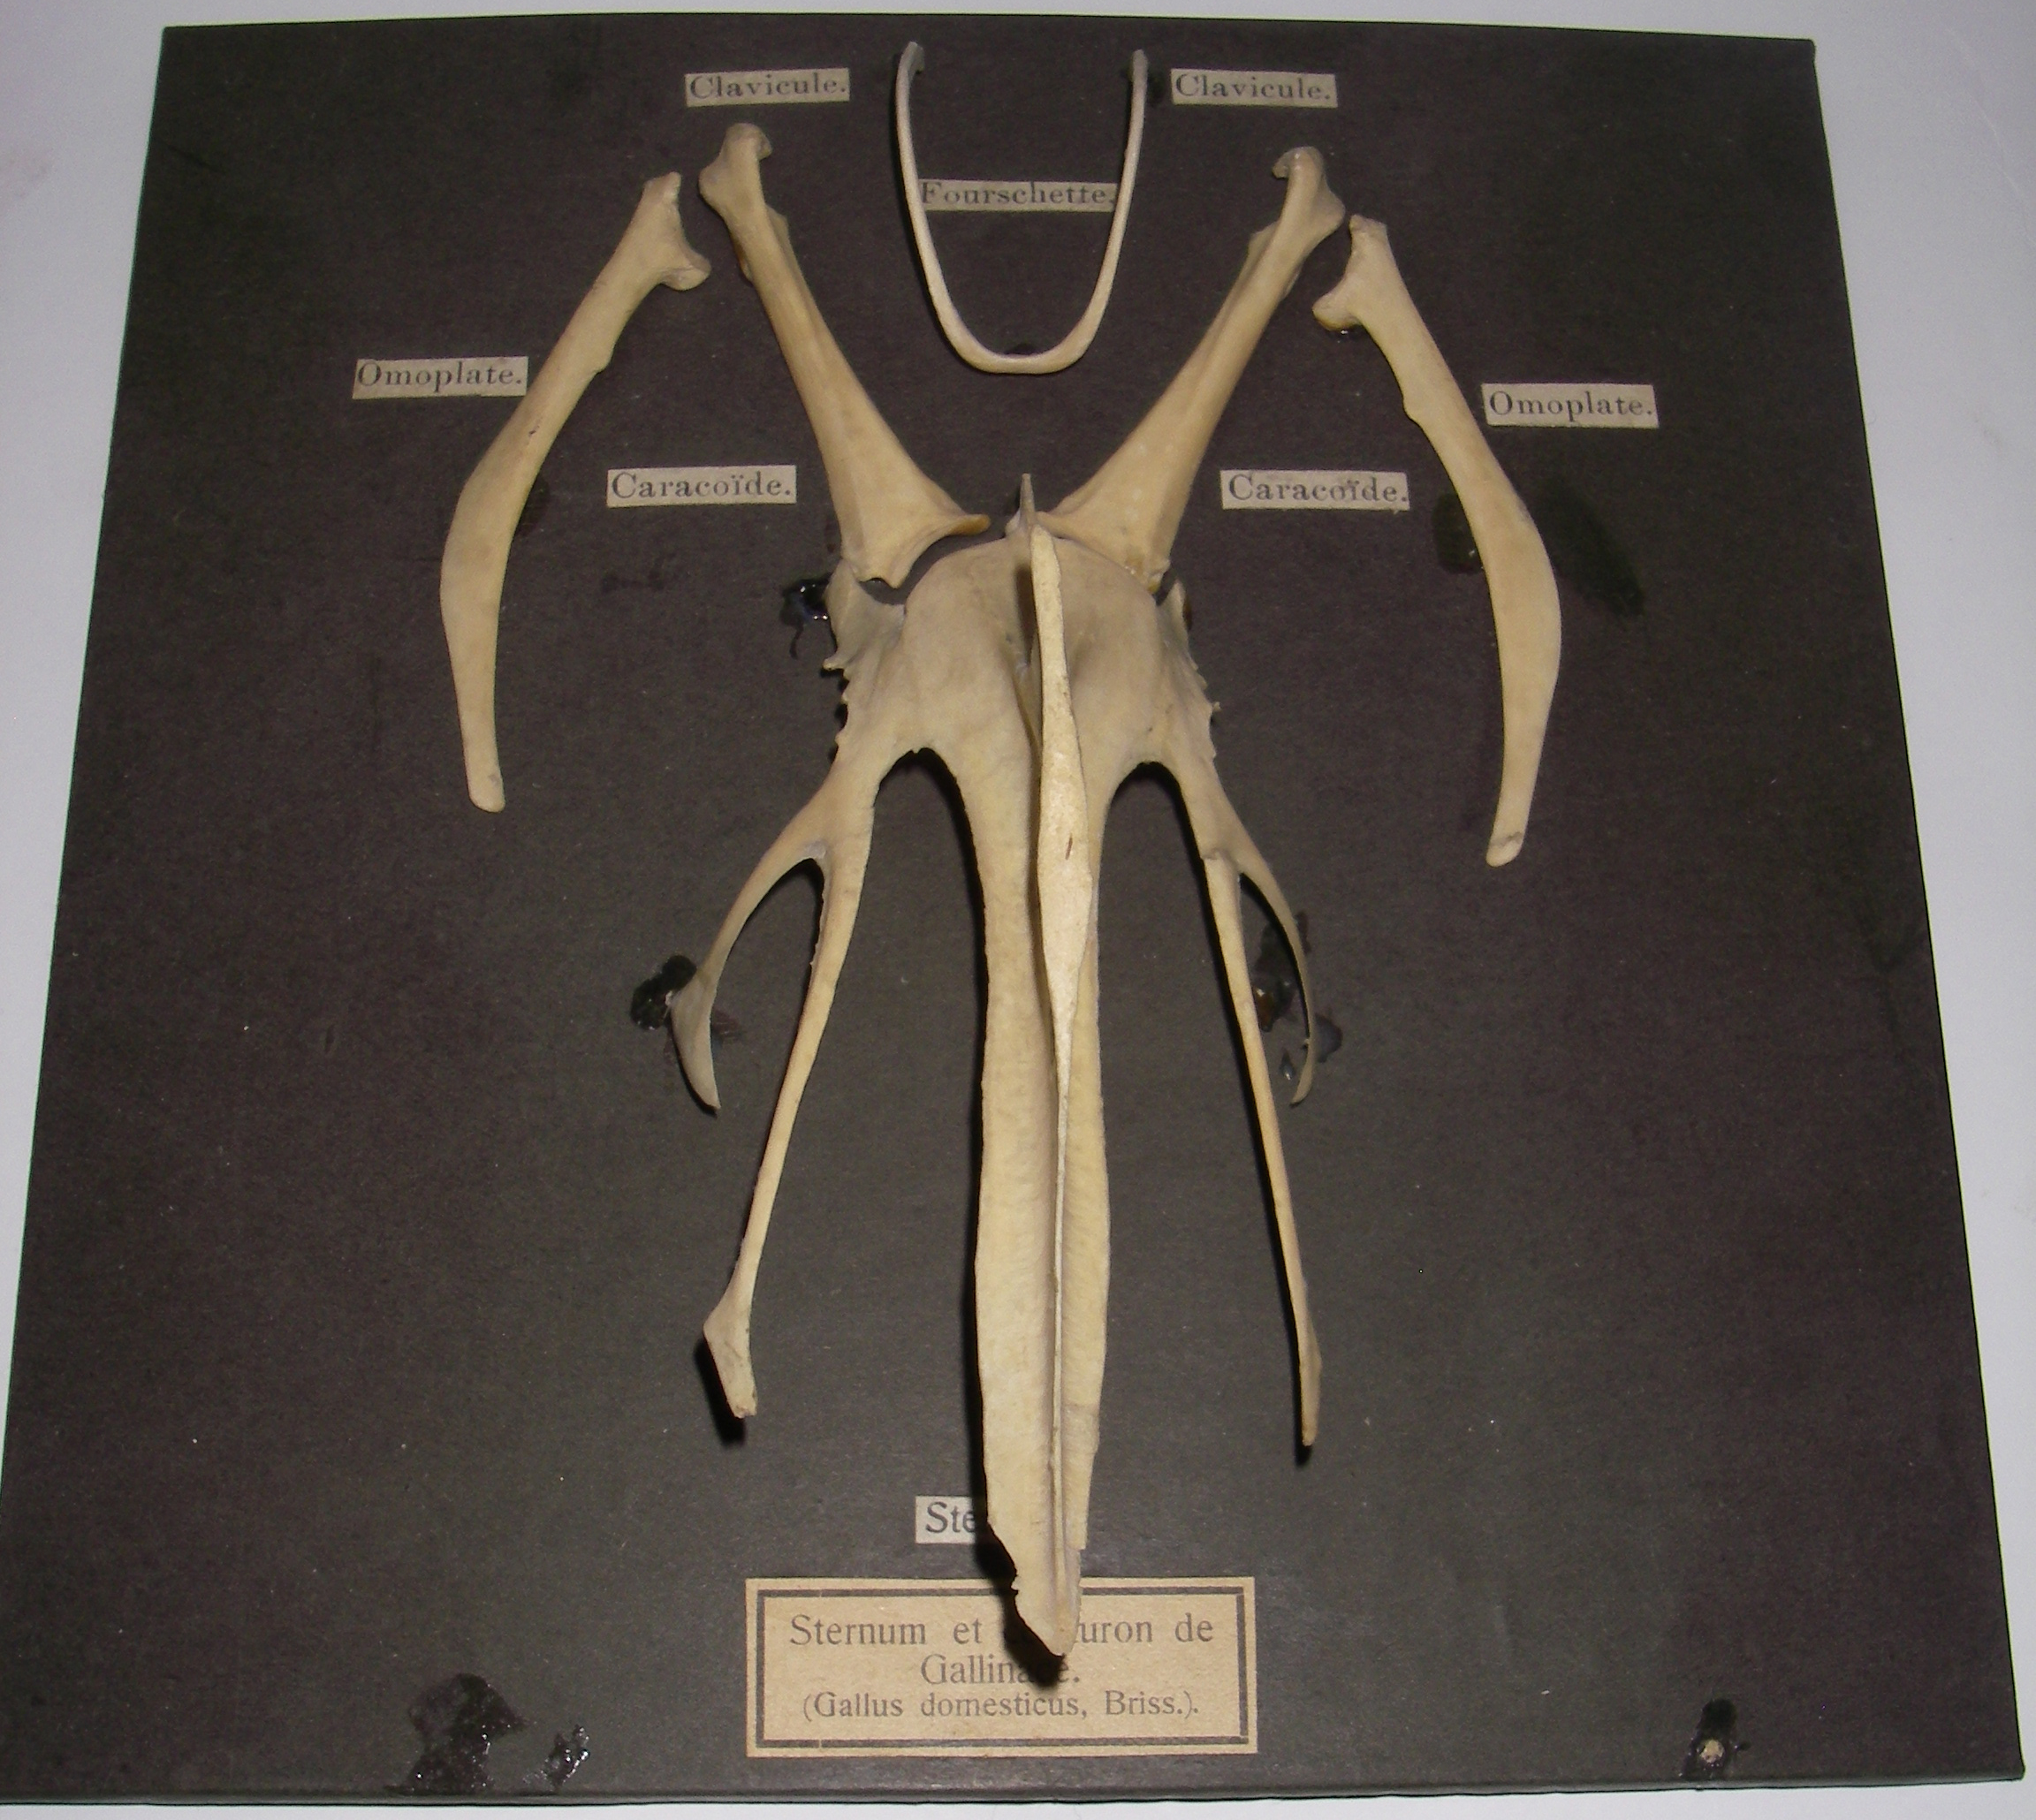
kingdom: Animalia
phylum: Chordata
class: Aves
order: Galliformes
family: Phasianidae
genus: Gallus
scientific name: Gallus gallus
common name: Red junglefowl
